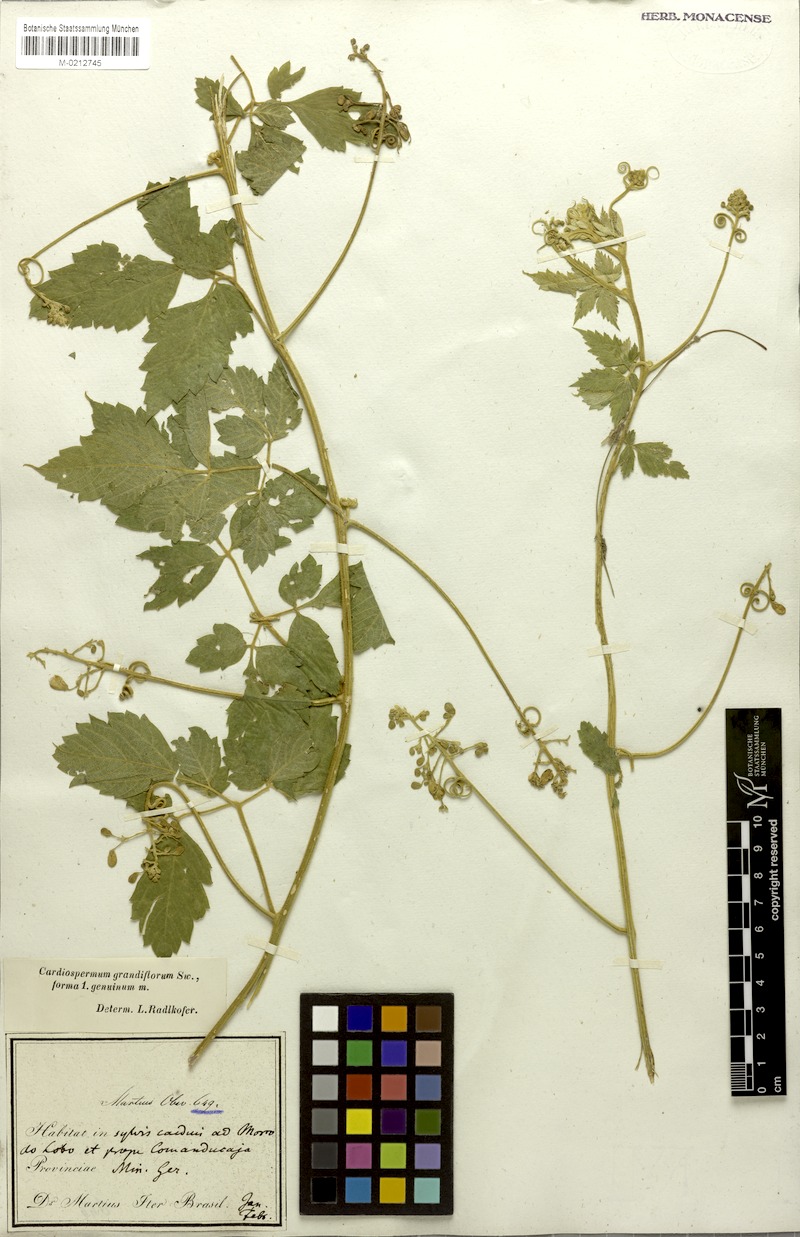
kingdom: Plantae
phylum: Tracheophyta
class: Magnoliopsida
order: Sapindales
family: Sapindaceae
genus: Cardiospermum
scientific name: Cardiospermum grandiflorum
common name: Balloon vine
